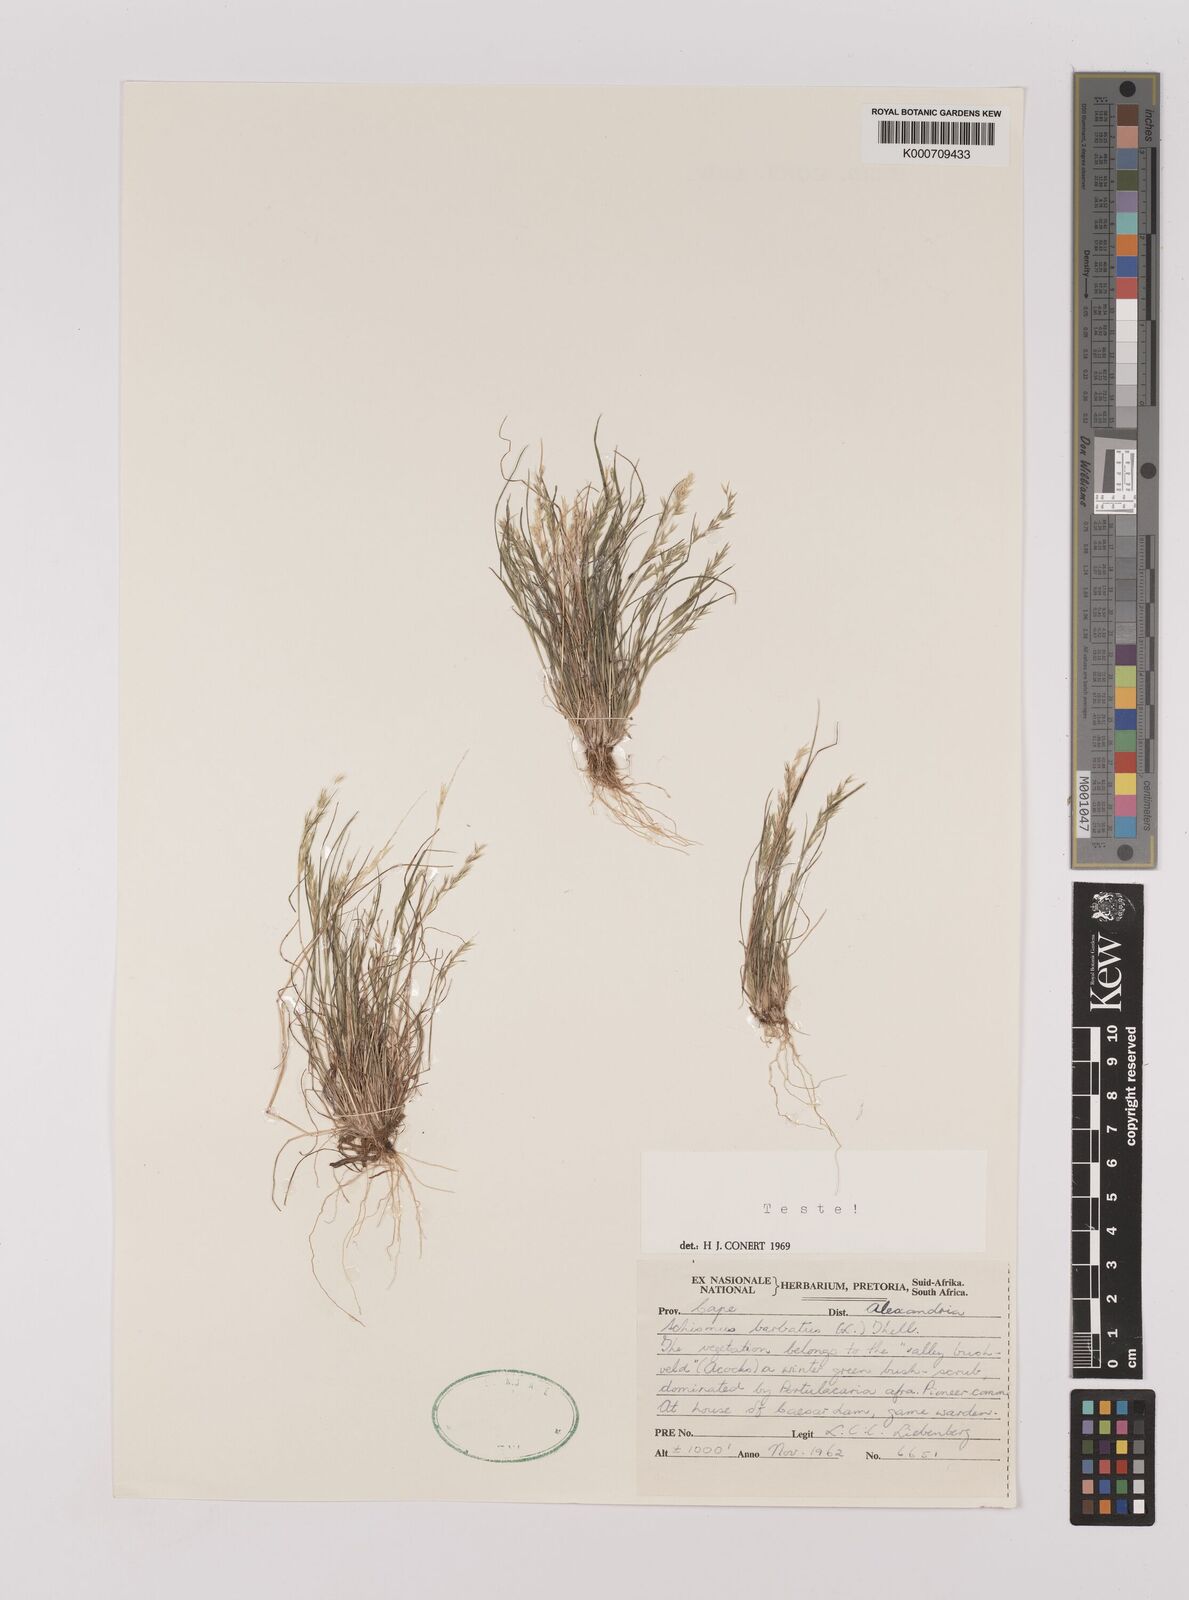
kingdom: Plantae
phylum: Tracheophyta
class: Liliopsida
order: Poales
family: Poaceae
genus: Schismus
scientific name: Schismus barbatus
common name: Kelch-grass
